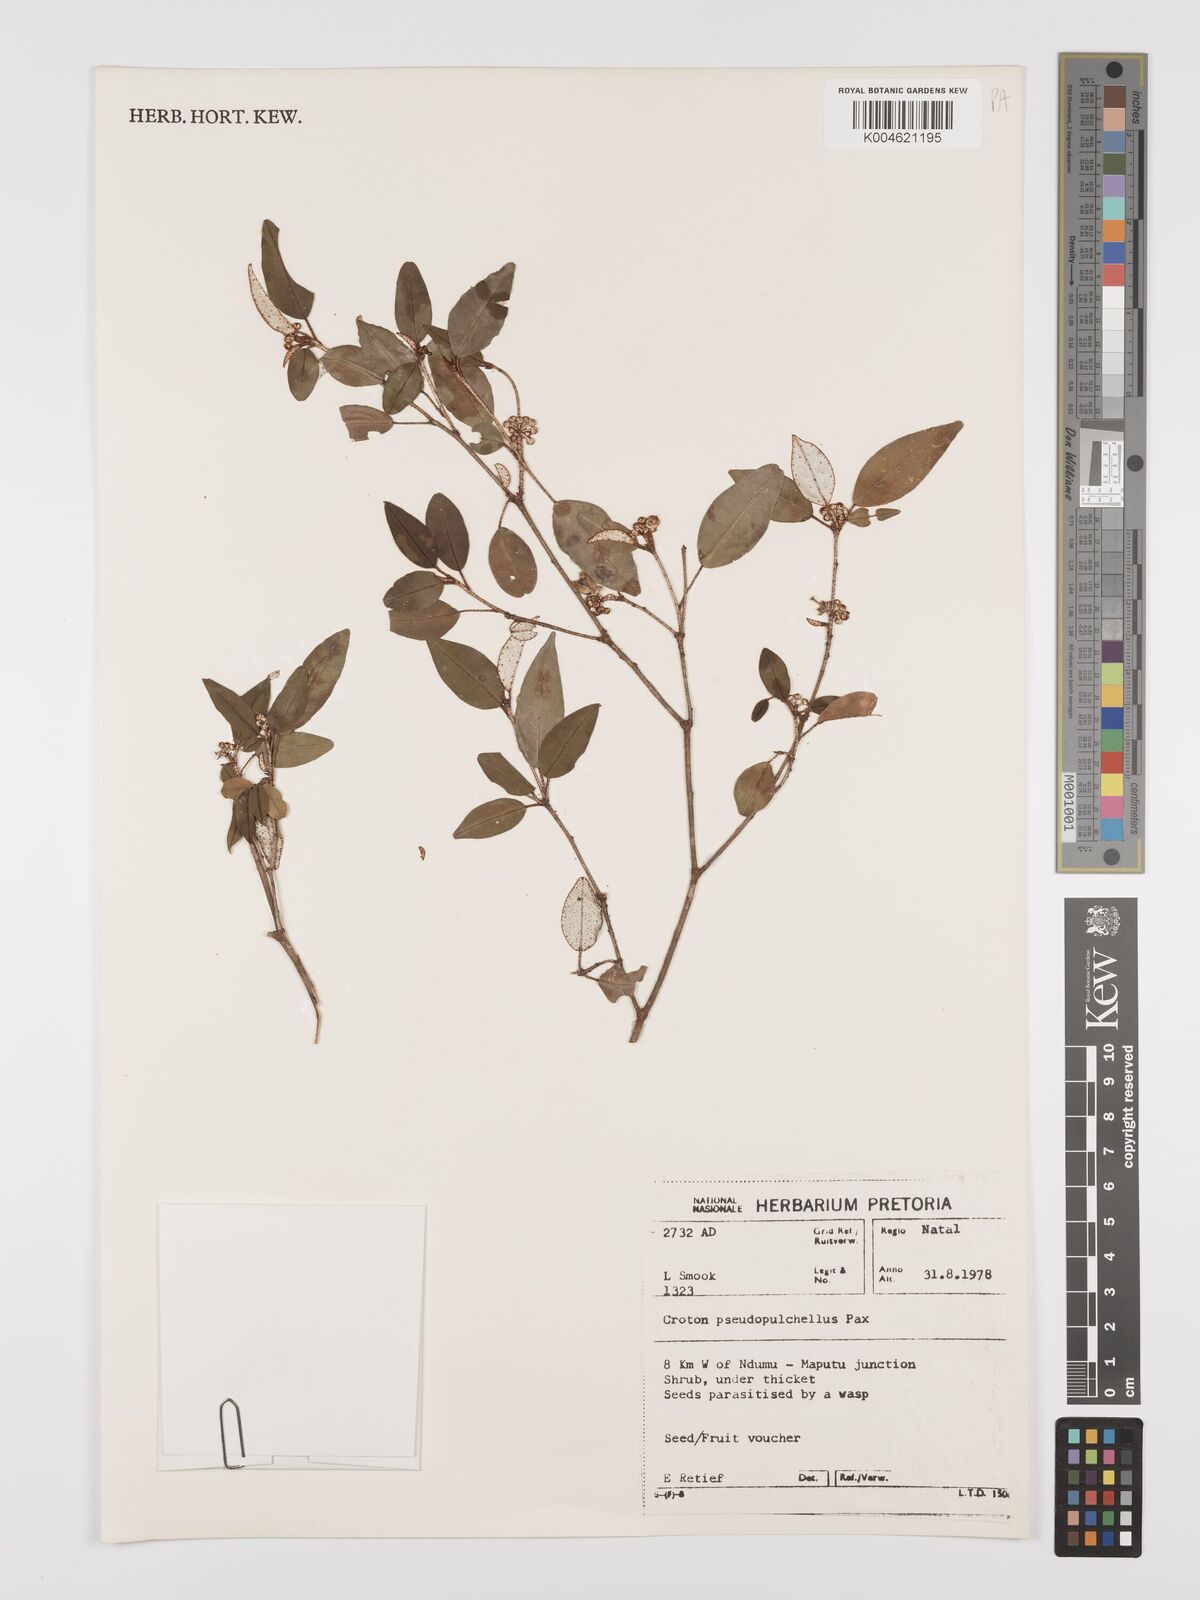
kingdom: Plantae
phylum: Tracheophyta
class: Magnoliopsida
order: Malpighiales
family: Euphorbiaceae
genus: Croton
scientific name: Croton pseudopulchellus
